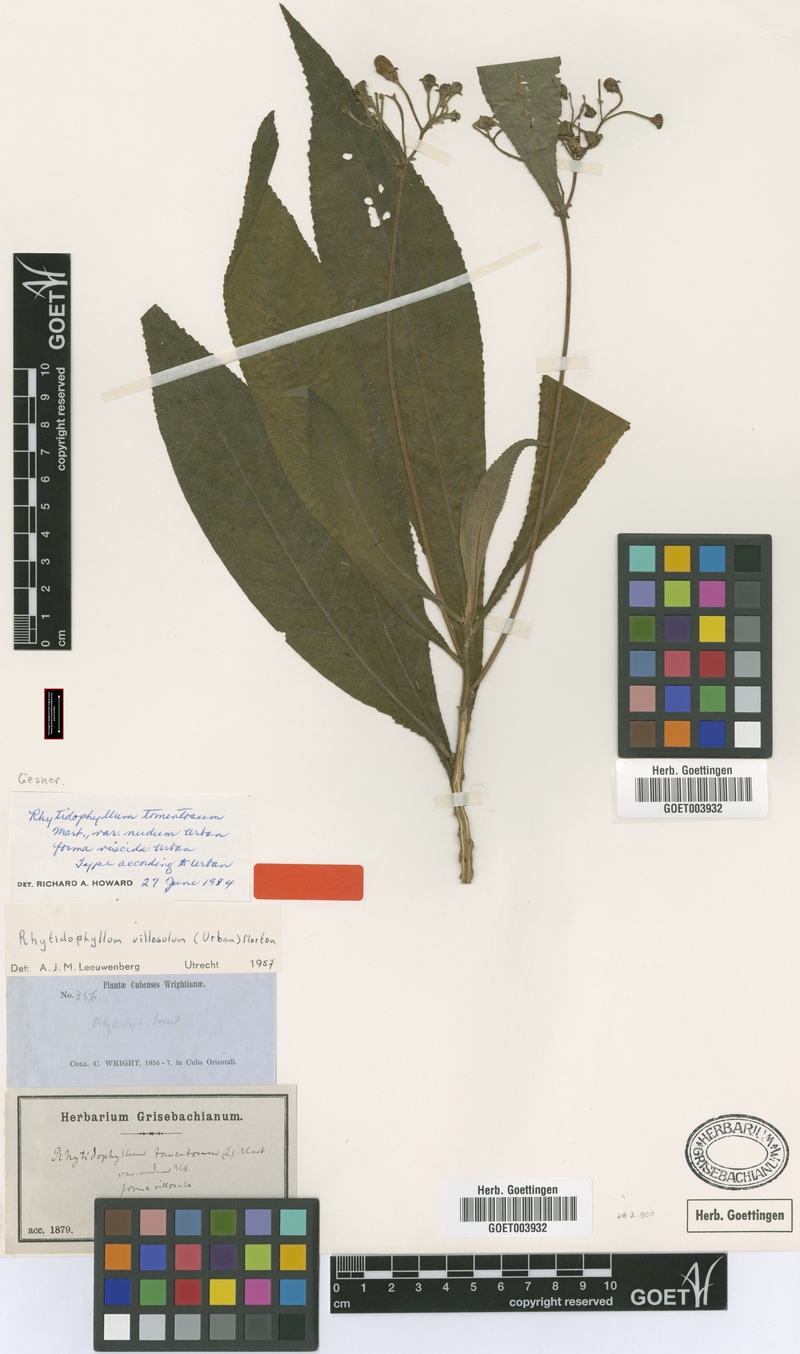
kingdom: Plantae
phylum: Tracheophyta
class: Magnoliopsida
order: Lamiales
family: Gesneriaceae
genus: Rhytidophyllum
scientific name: Rhytidophyllum exsertum
